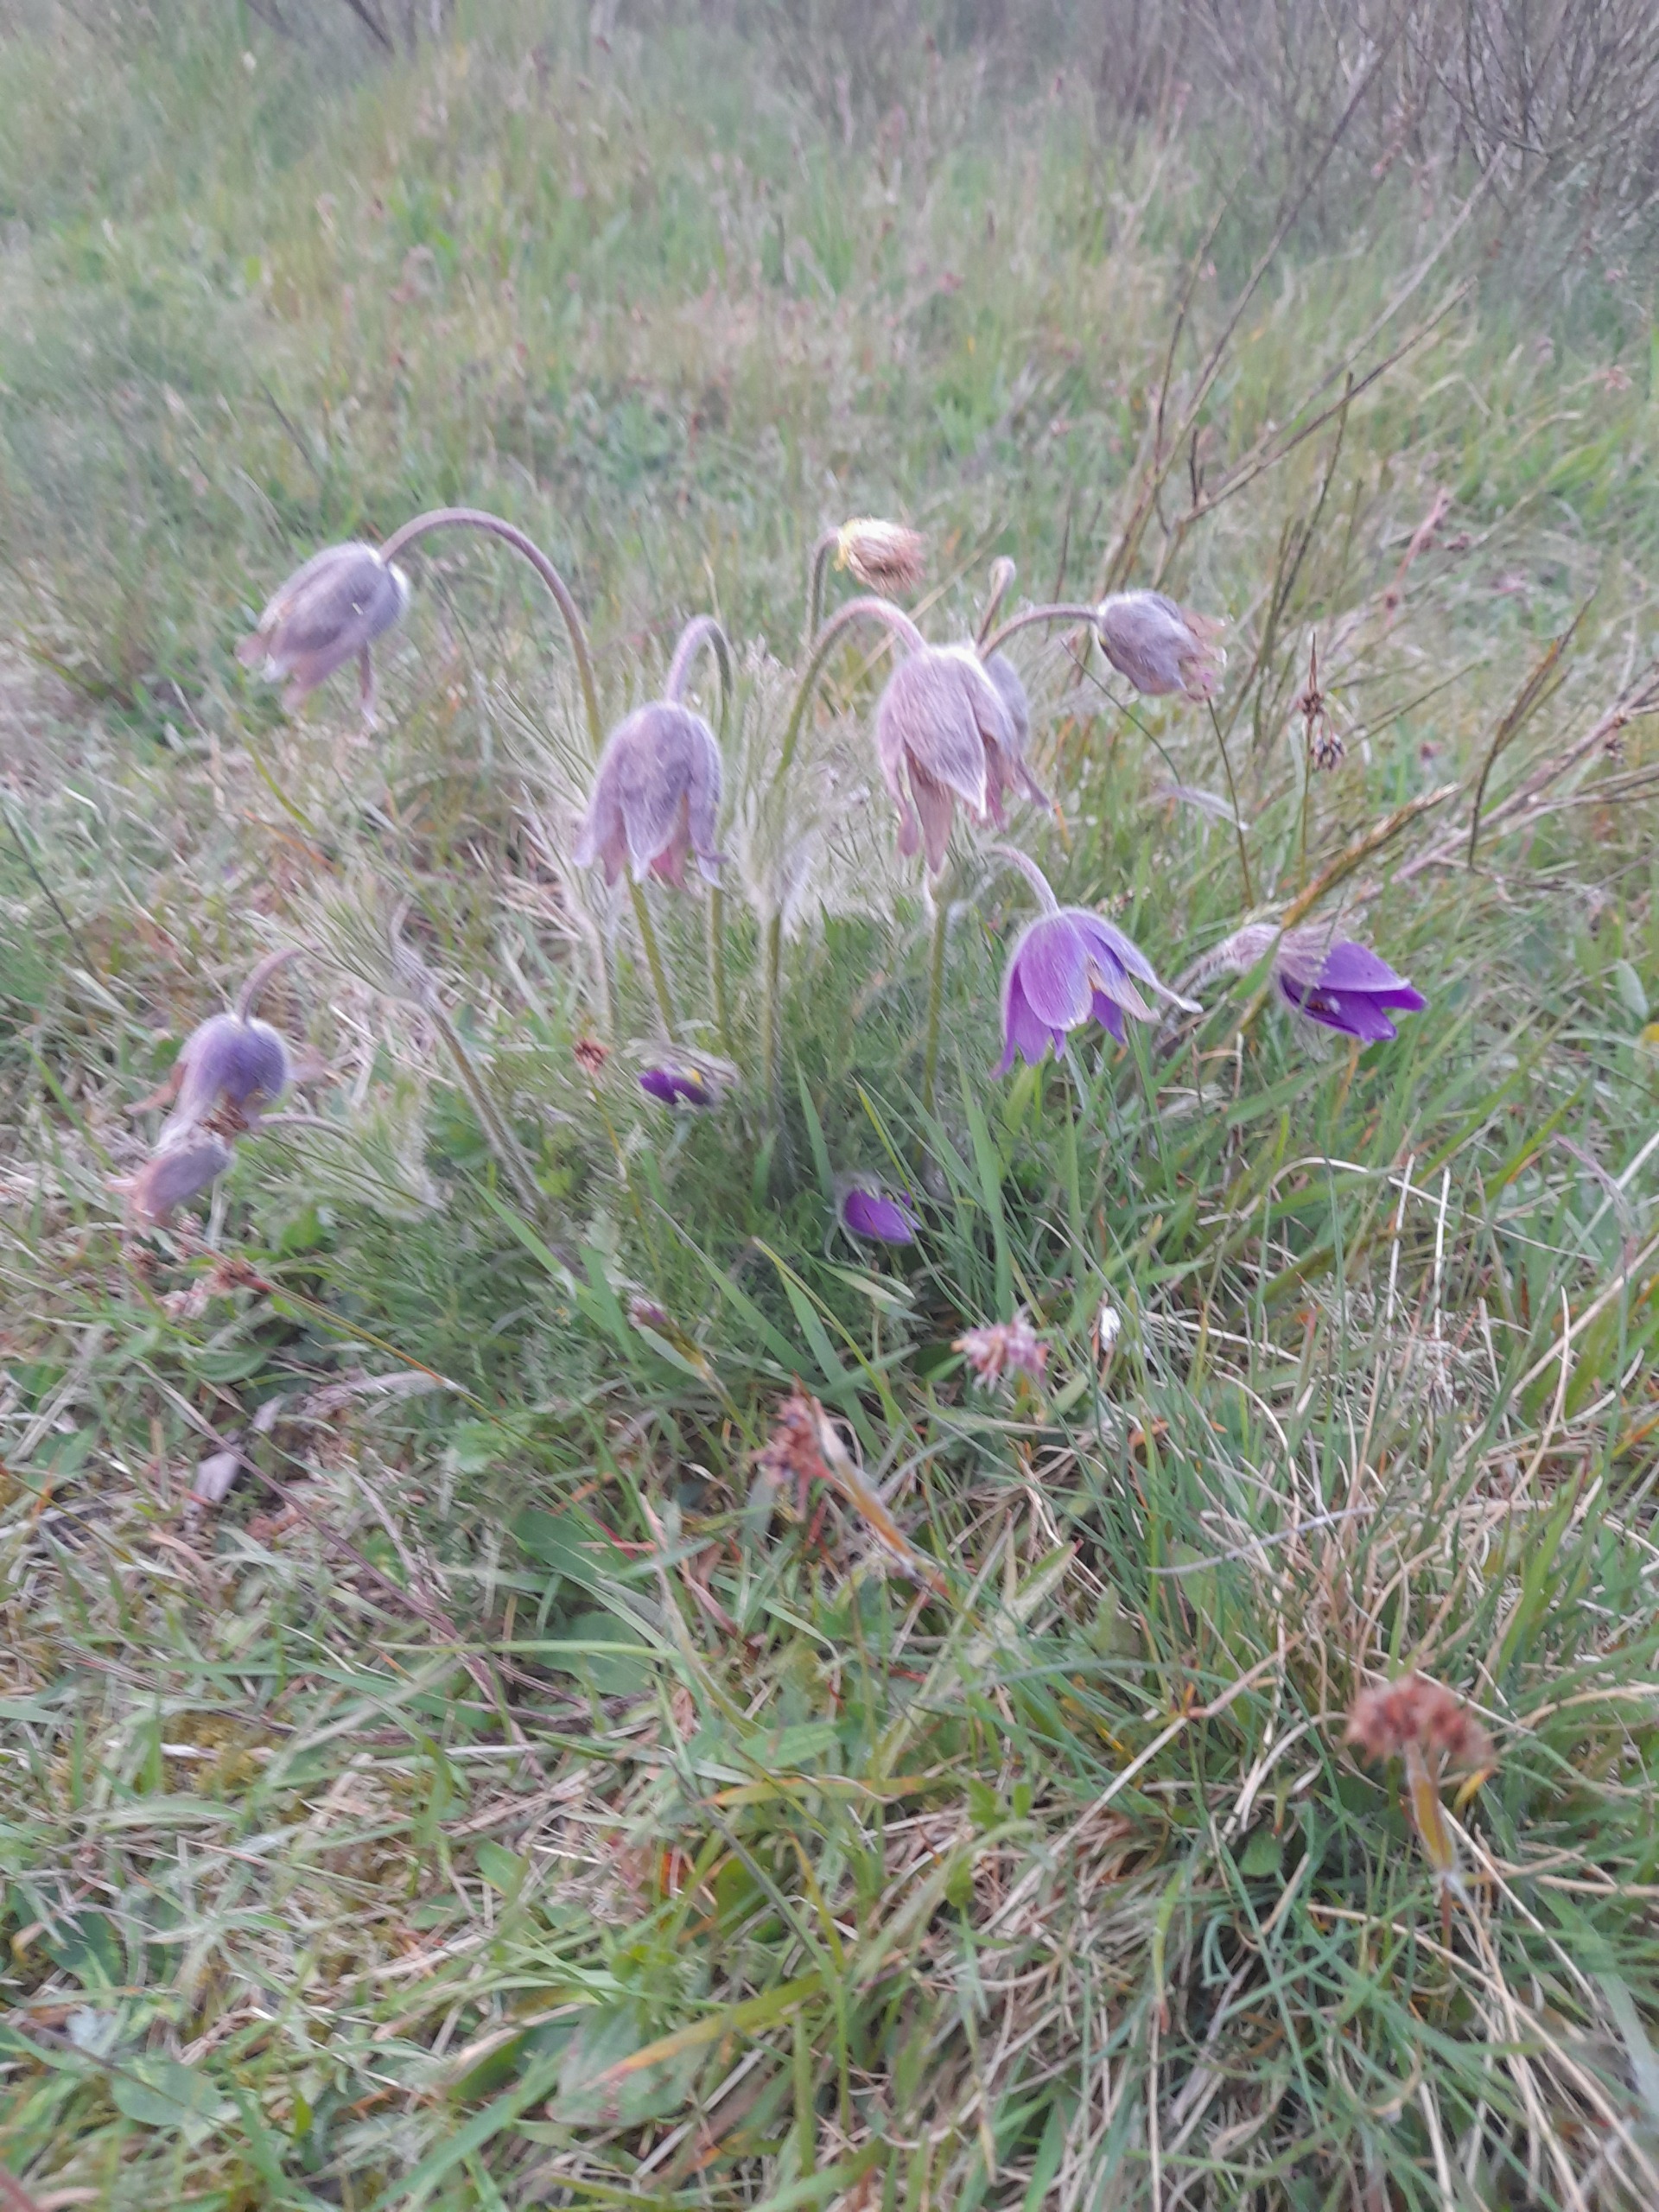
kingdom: Plantae
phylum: Tracheophyta
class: Magnoliopsida
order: Ranunculales
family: Ranunculaceae
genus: Pulsatilla
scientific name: Pulsatilla vulgaris
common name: Opret kobjælde
